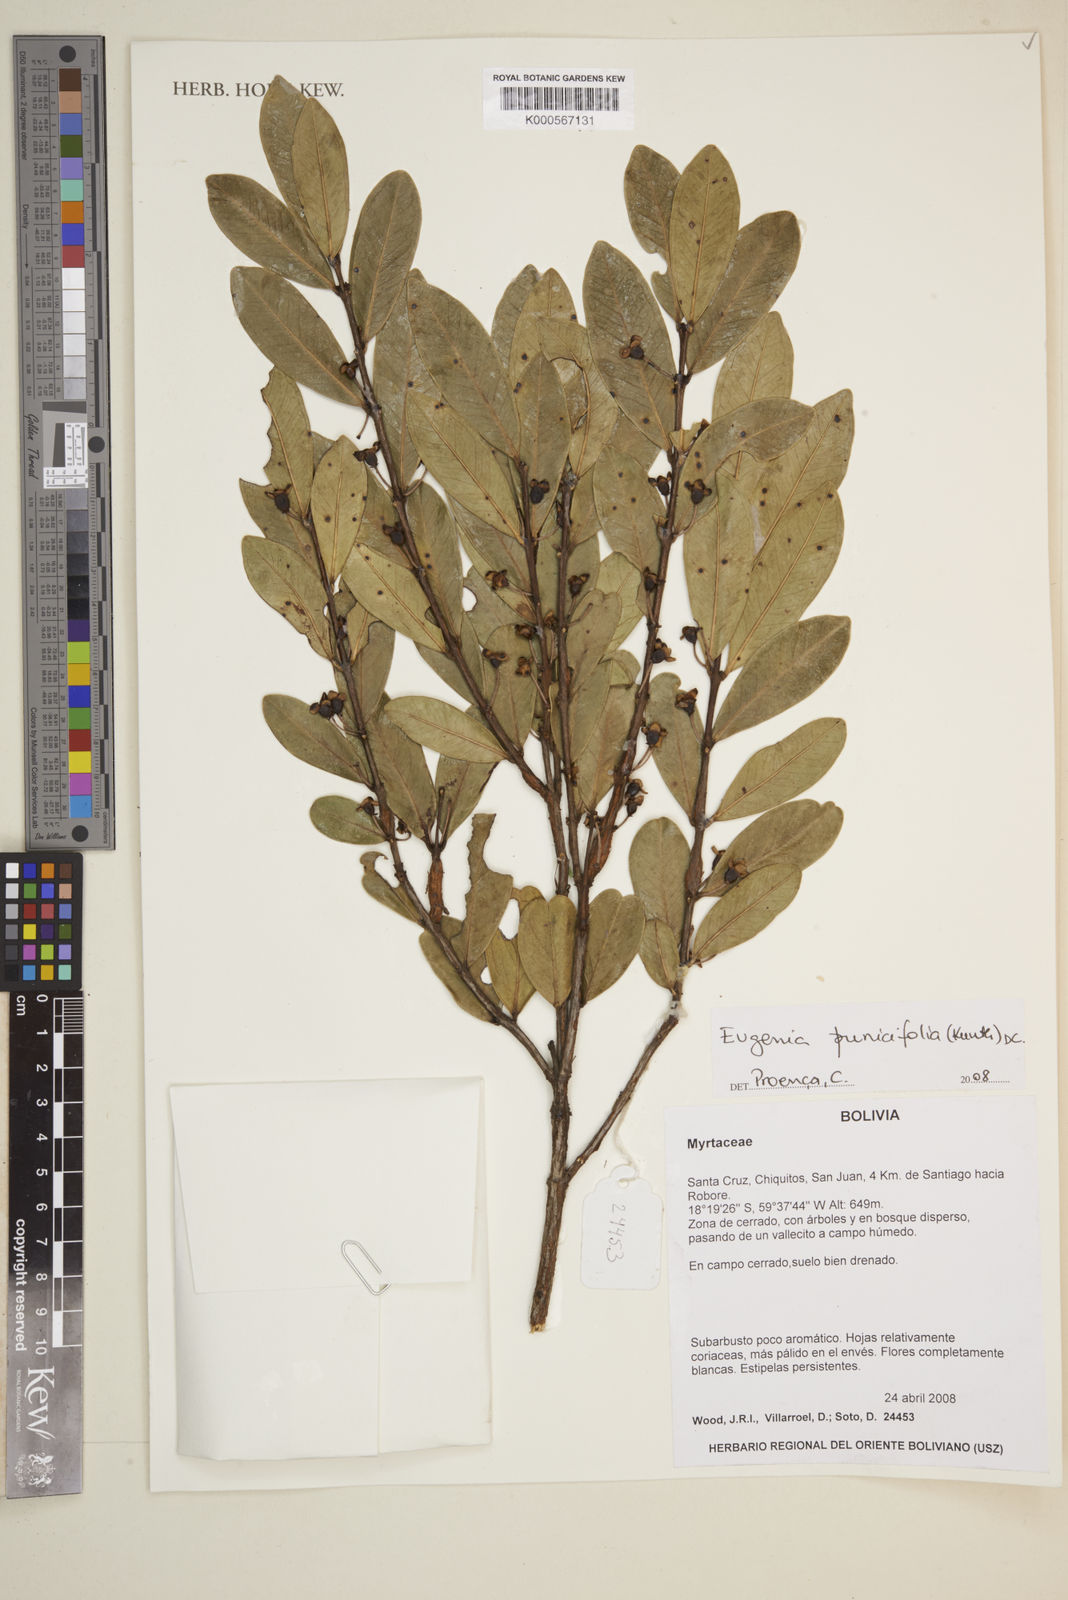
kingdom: Plantae
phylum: Tracheophyta
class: Magnoliopsida
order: Myrtales
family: Myrtaceae
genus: Eugenia
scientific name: Eugenia punicifolia
